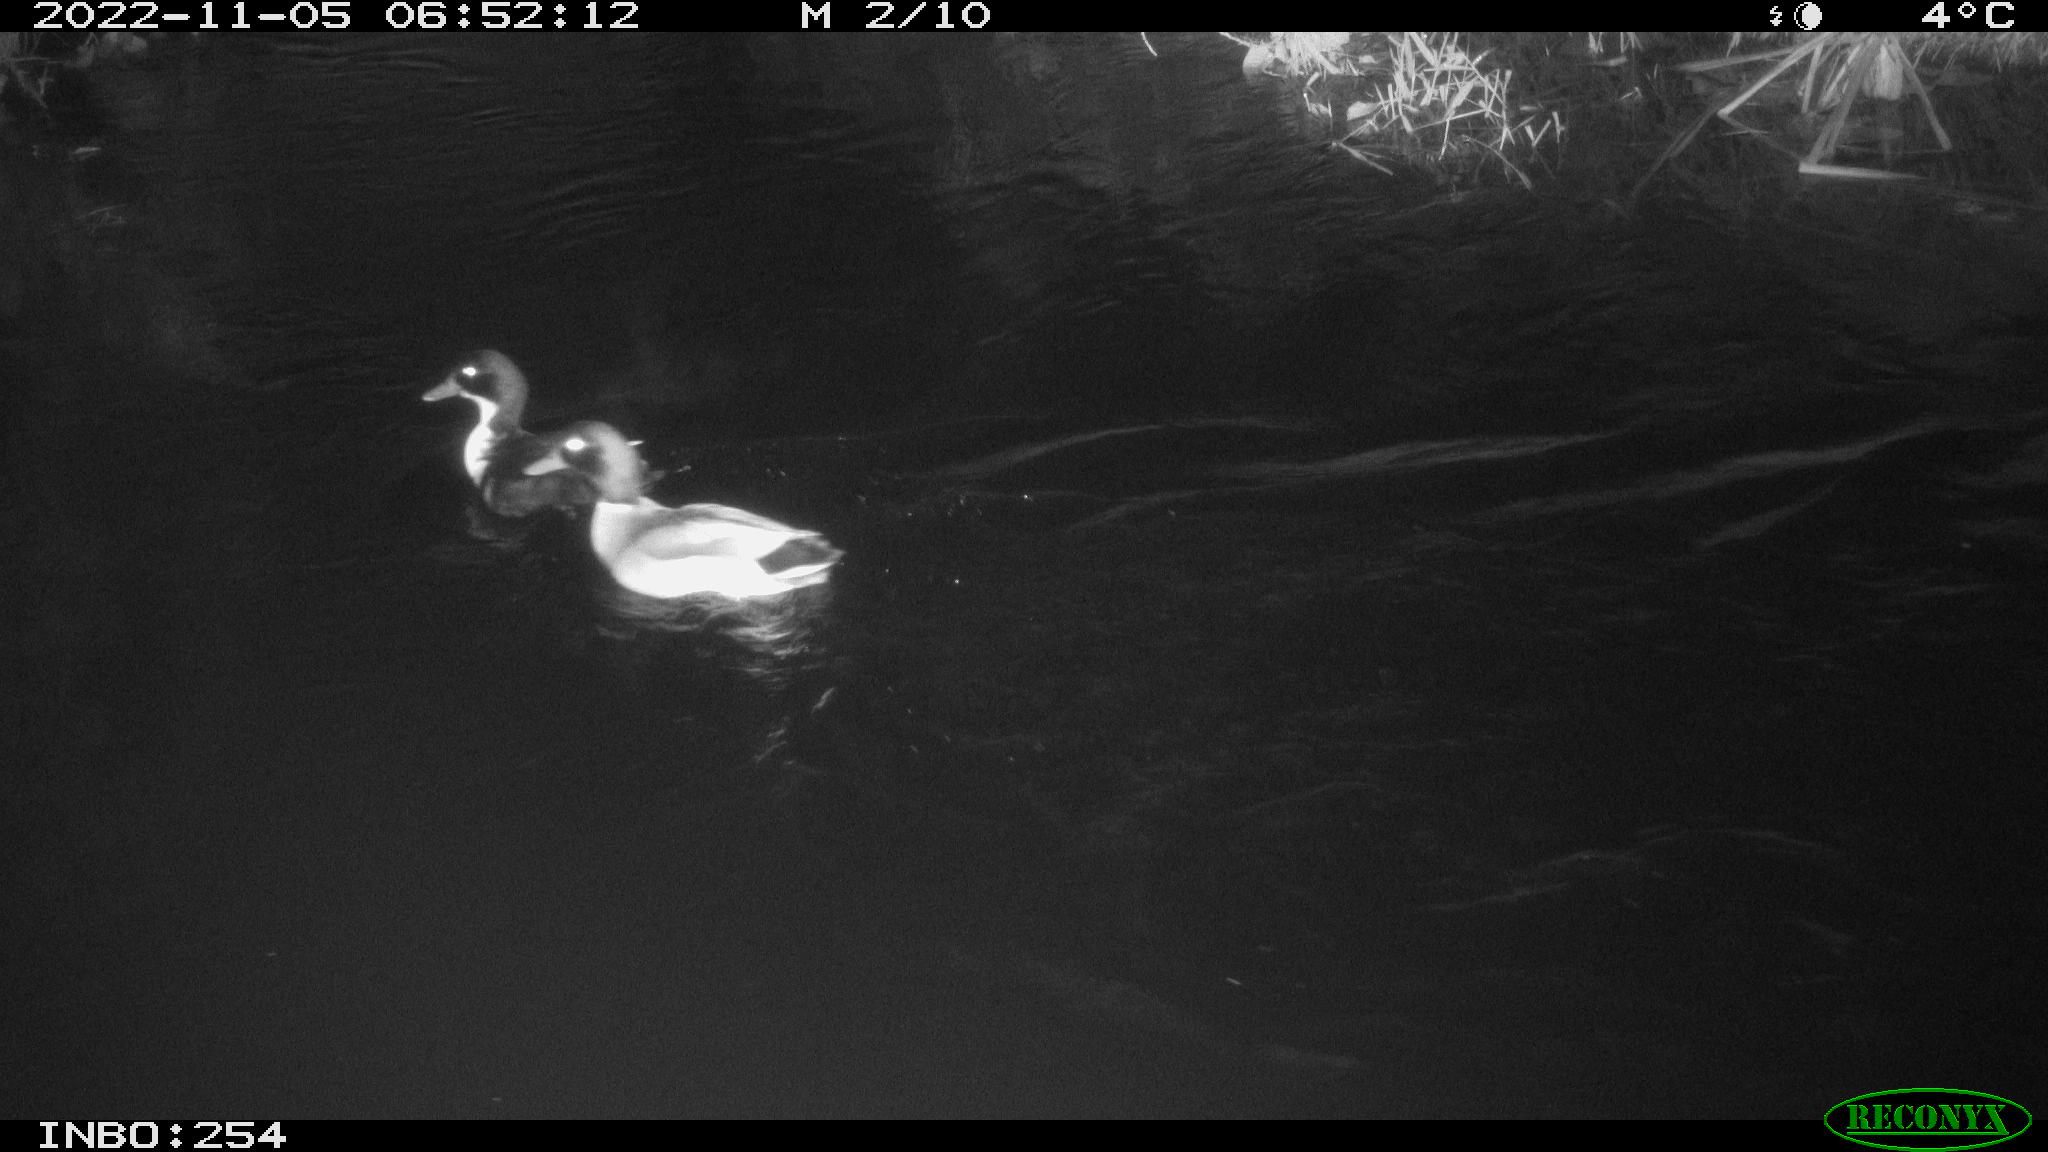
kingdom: Animalia
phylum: Chordata
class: Aves
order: Anseriformes
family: Anatidae
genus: Anas
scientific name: Anas
